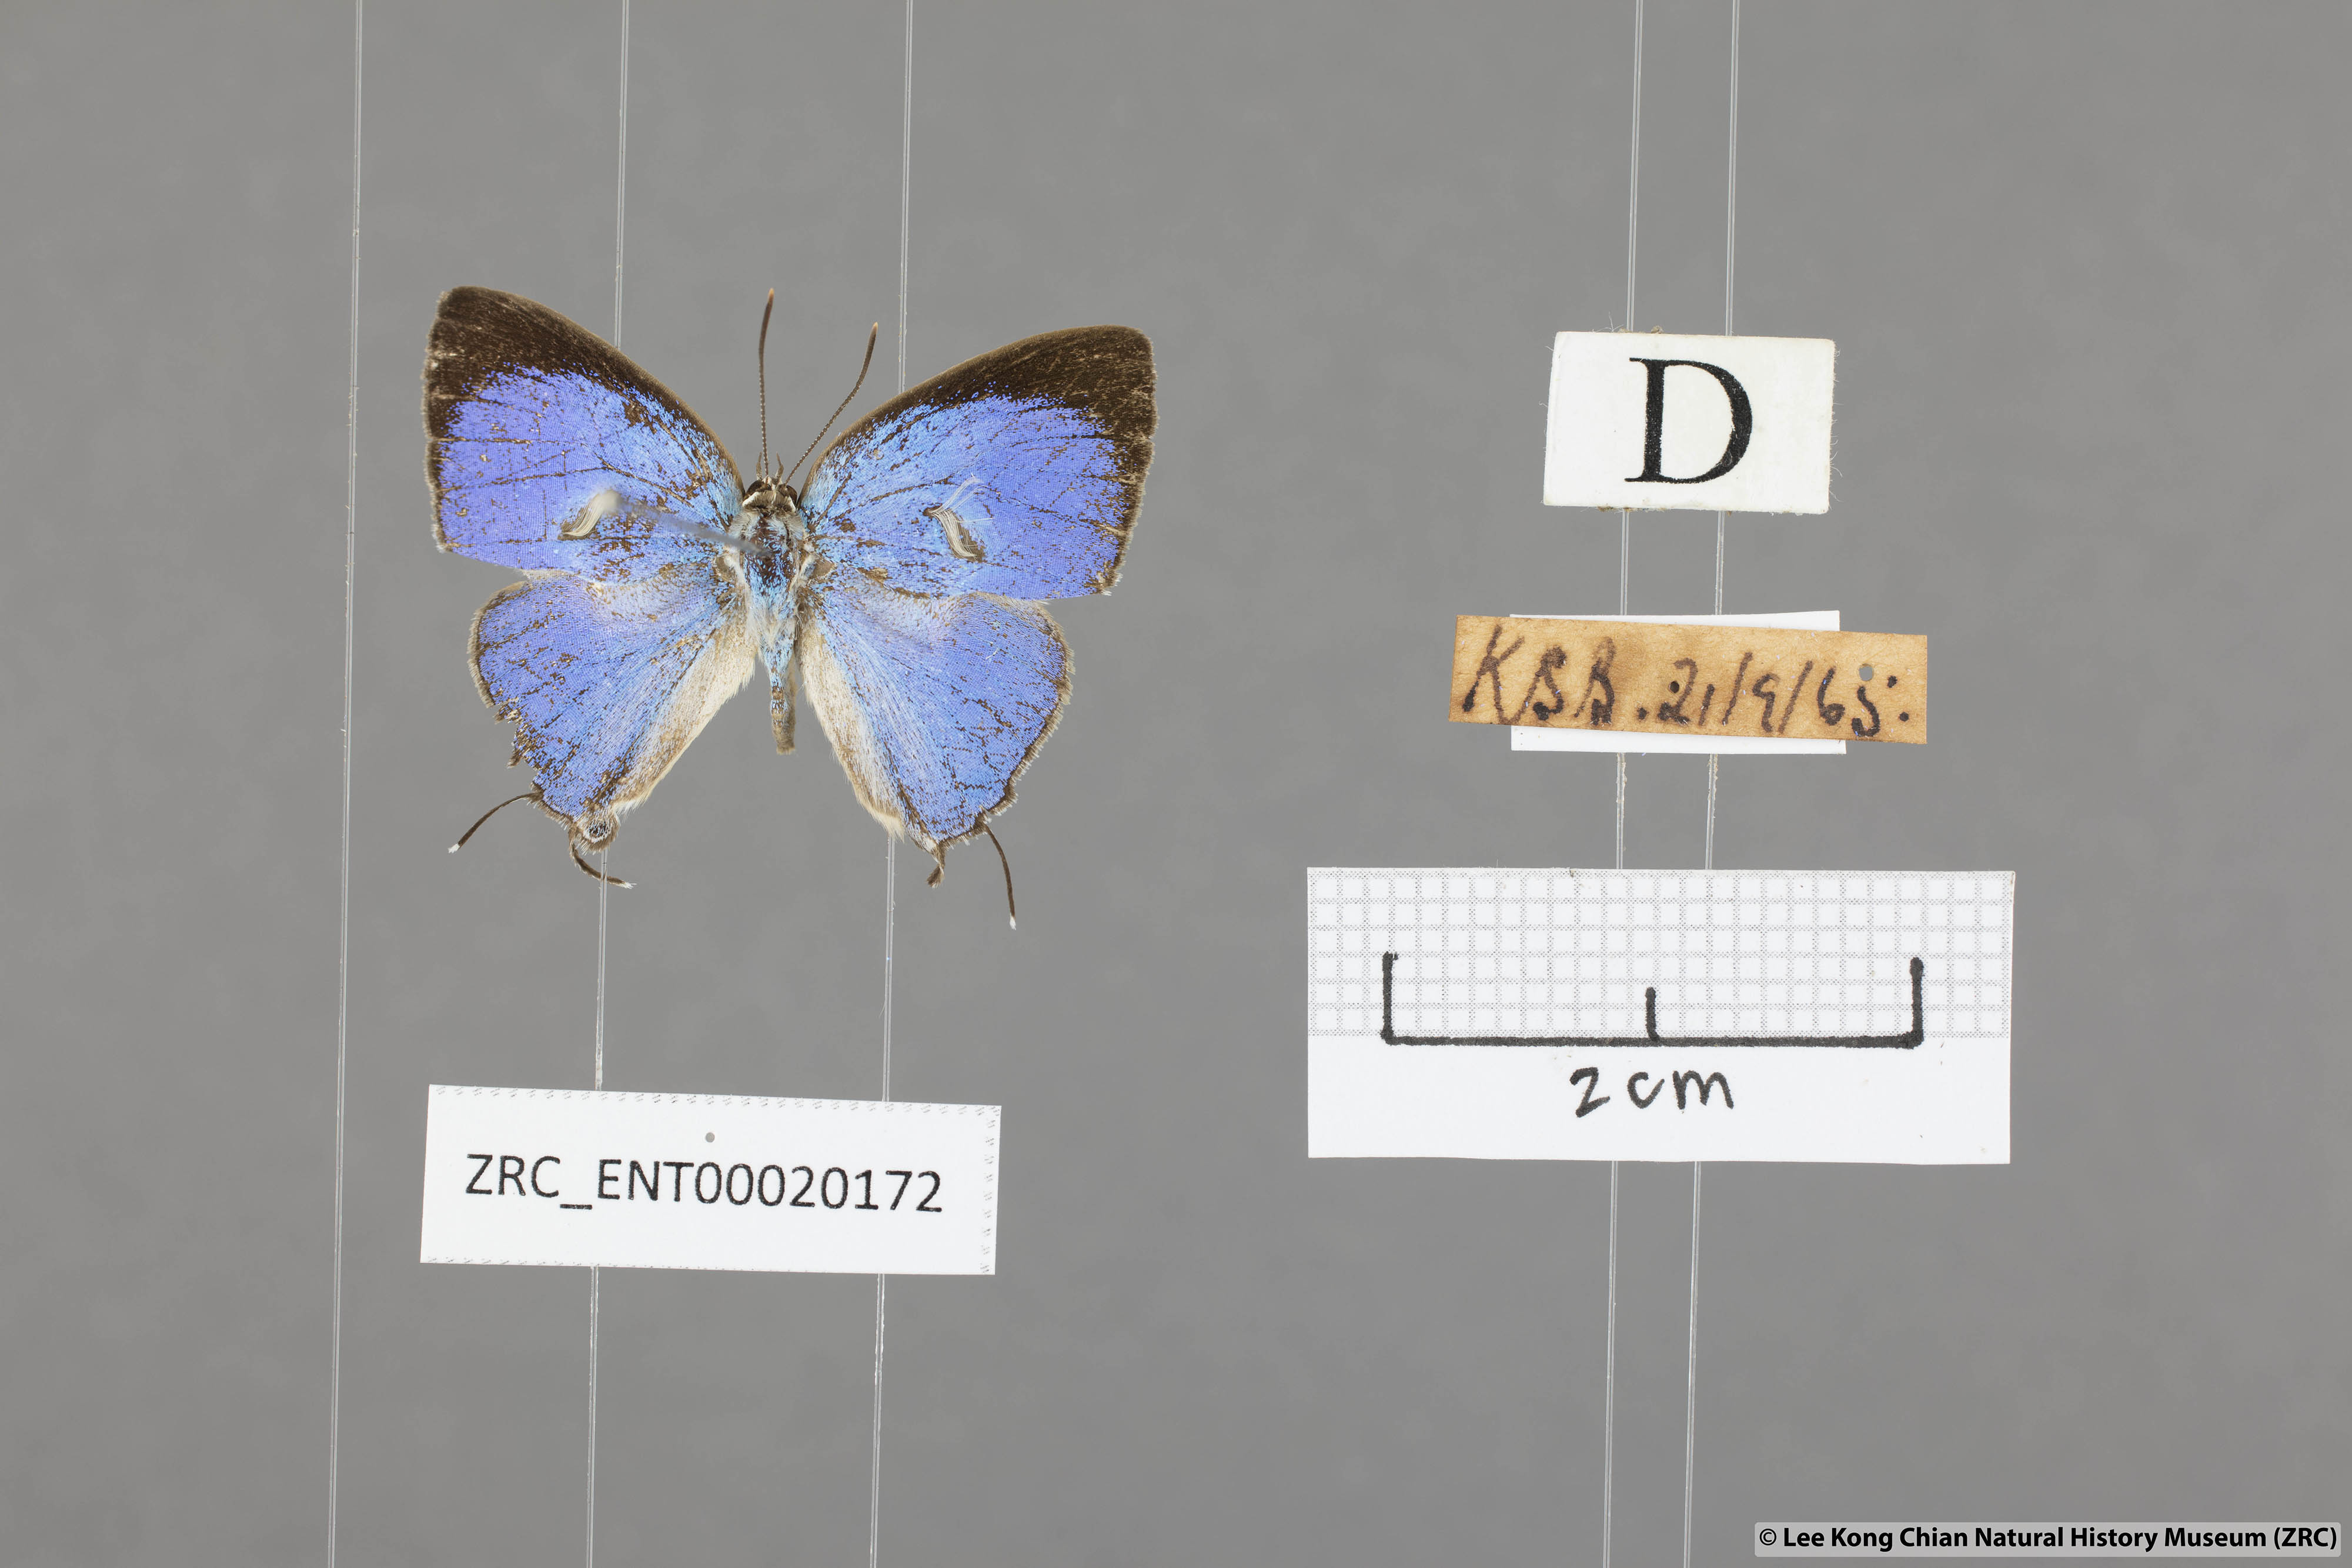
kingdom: Animalia
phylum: Arthropoda
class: Insecta
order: Lepidoptera
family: Lycaenidae
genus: Dacalana
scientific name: Dacalana vidura
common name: Medium-branded royal
